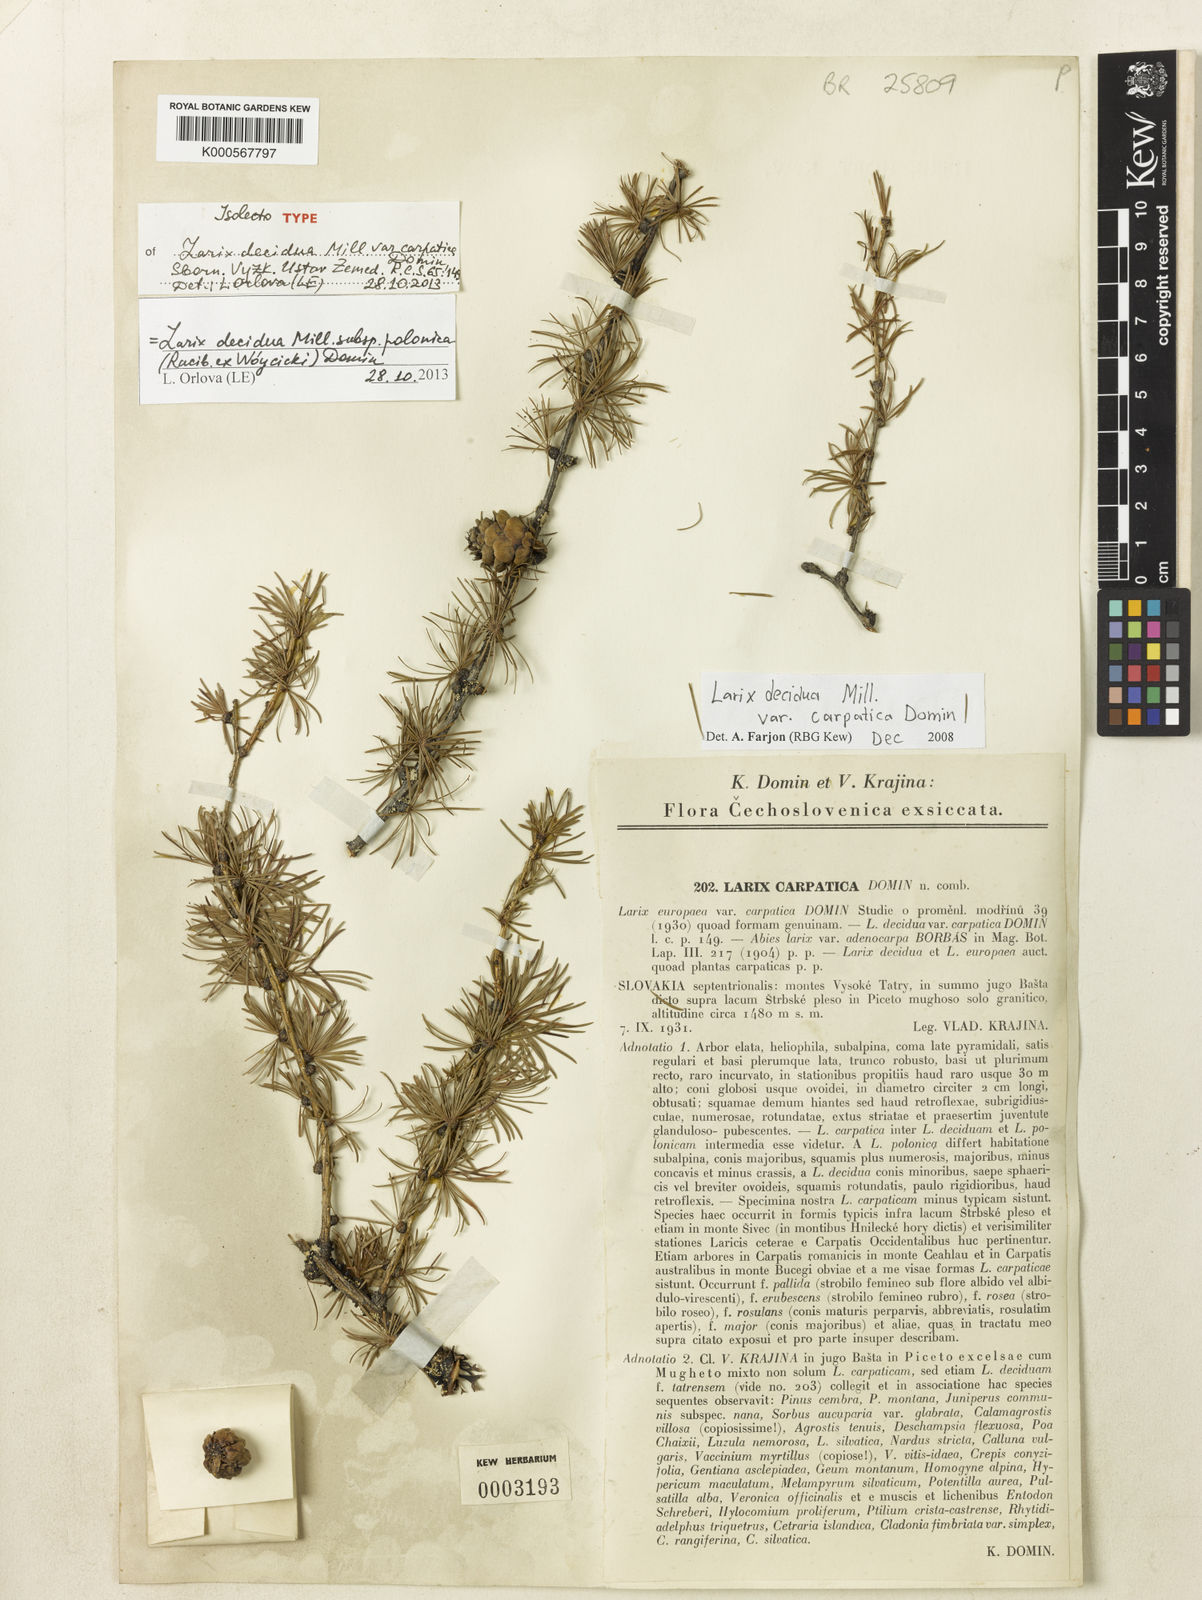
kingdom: Plantae
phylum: Tracheophyta
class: Pinopsida
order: Pinales
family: Pinaceae
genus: Larix
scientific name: Larix decidua
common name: European larch
